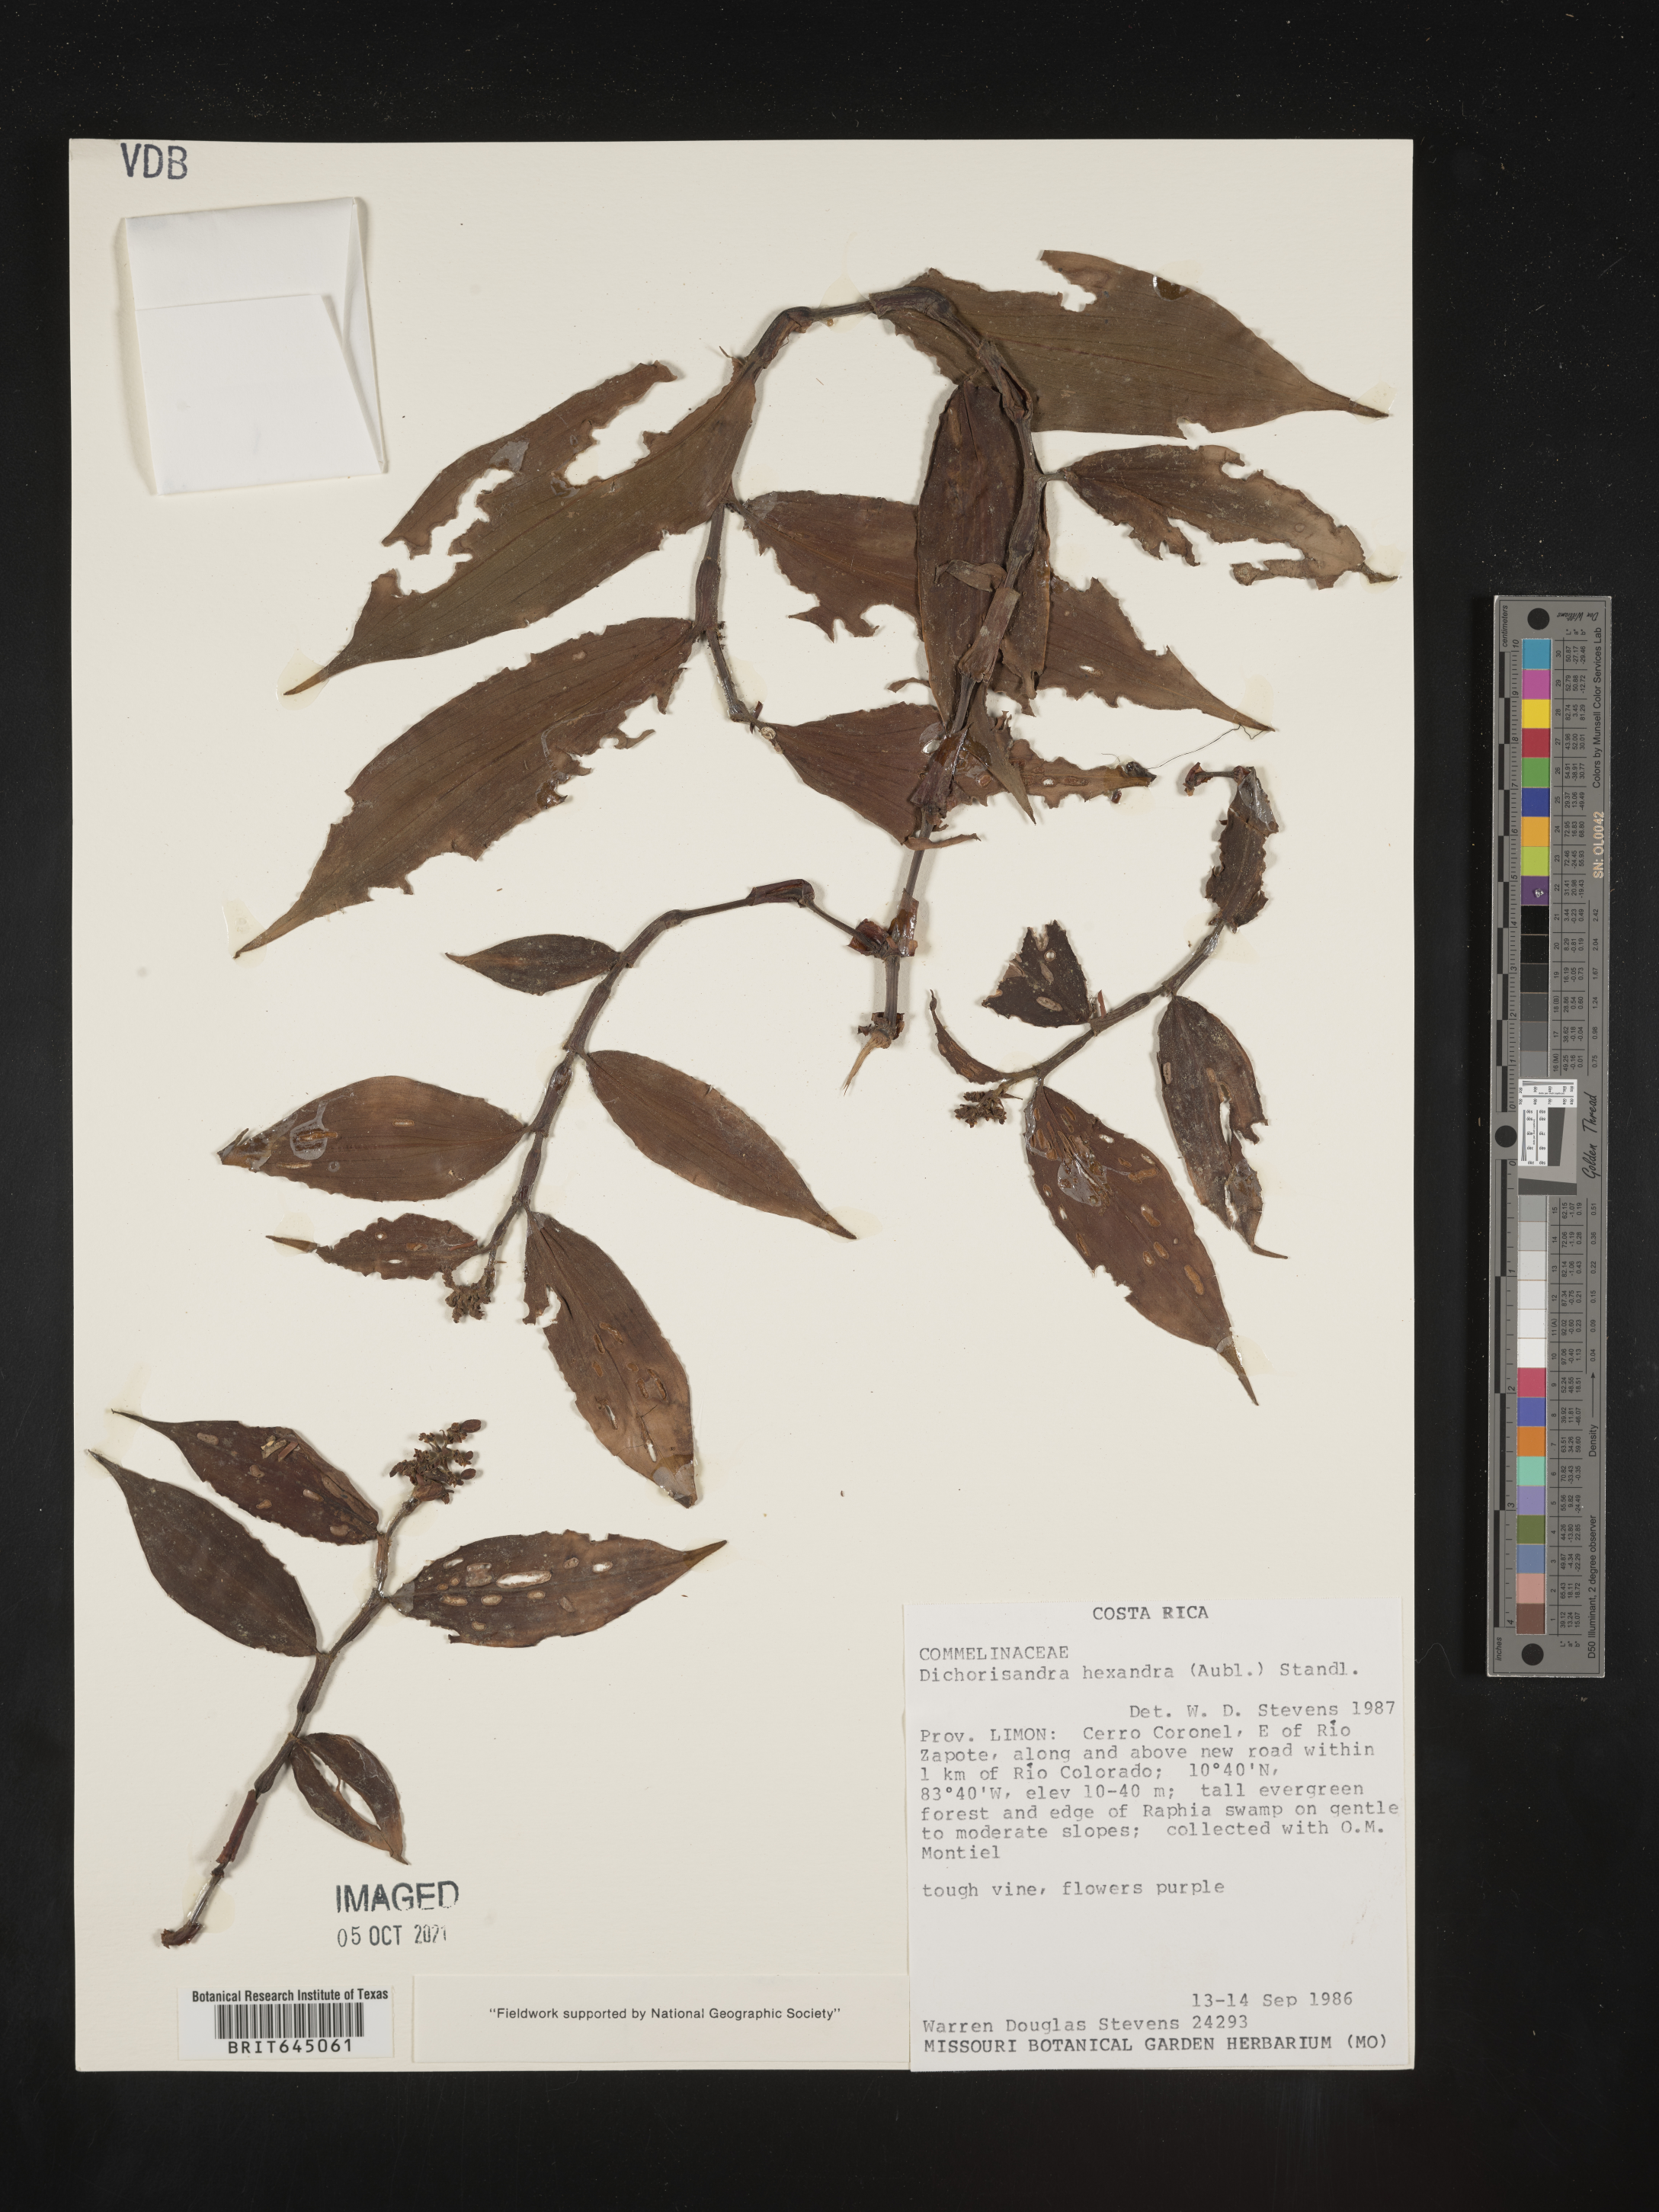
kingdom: Plantae
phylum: Tracheophyta
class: Liliopsida
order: Commelinales
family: Commelinaceae
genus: Dichorisandra
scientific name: Dichorisandra hexandra
